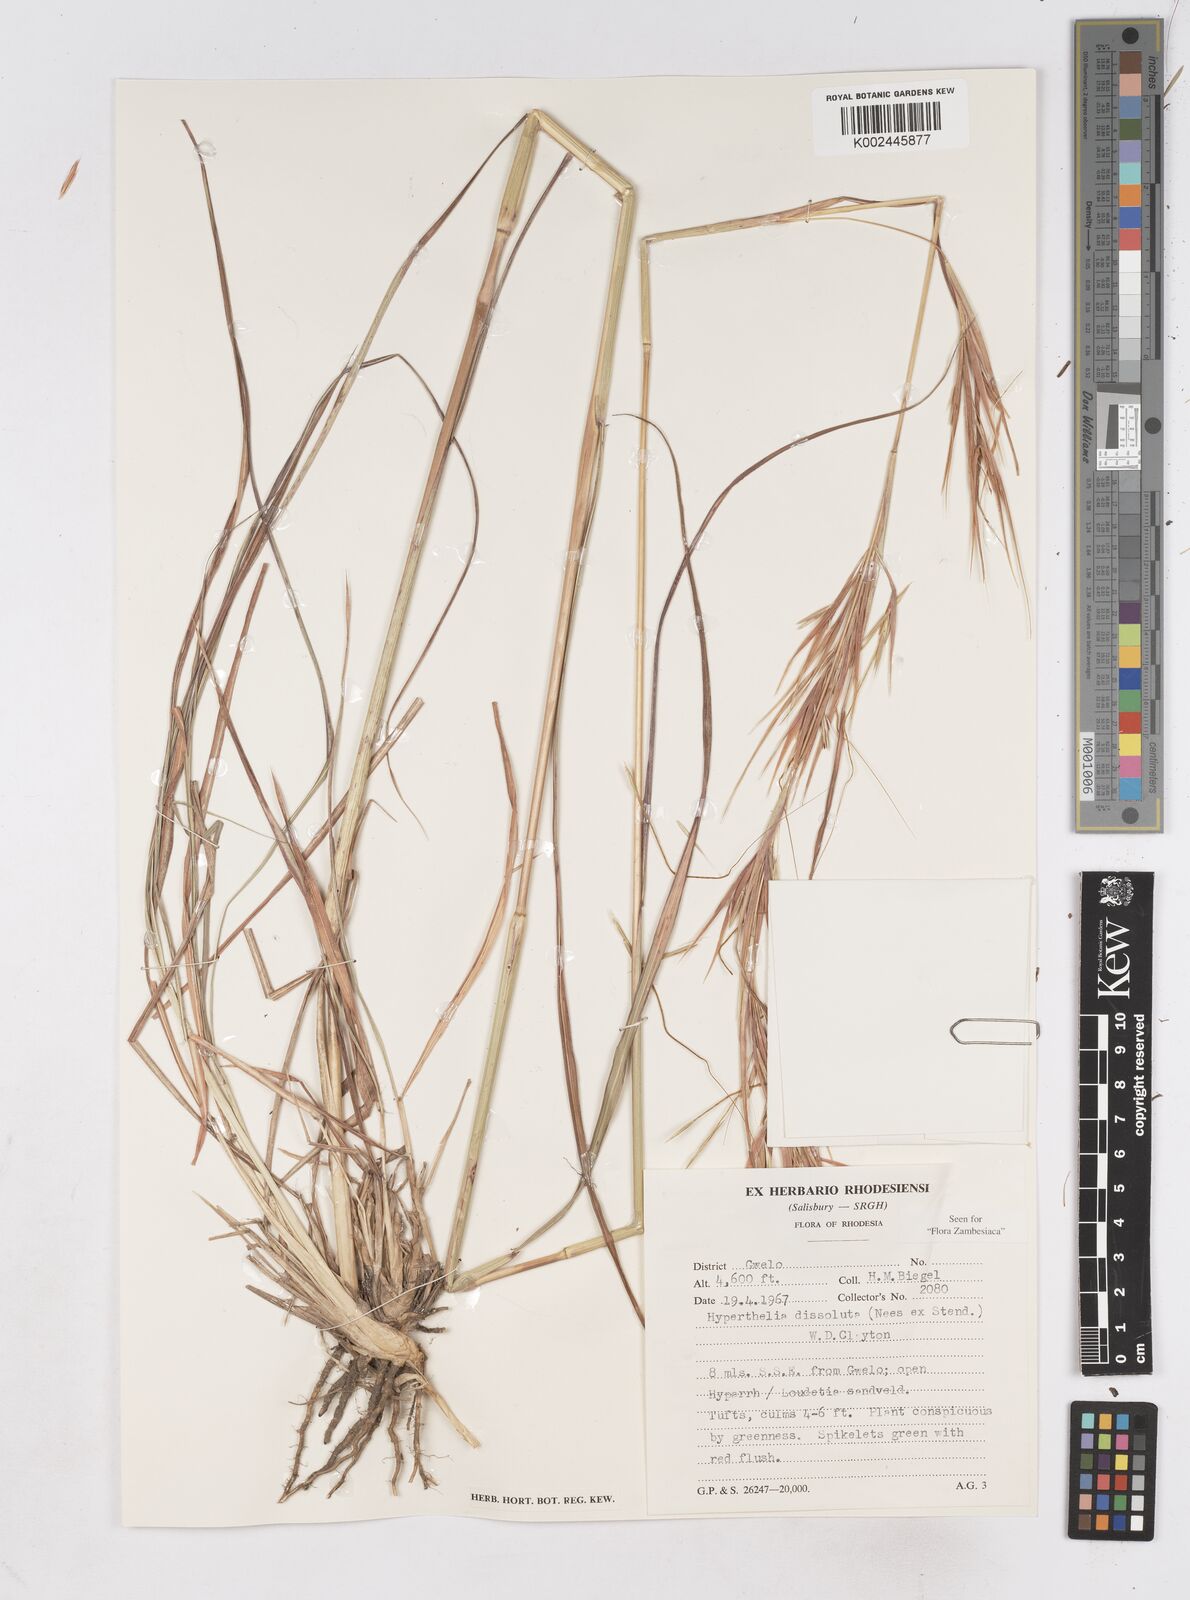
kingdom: Plantae
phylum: Tracheophyta
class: Liliopsida
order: Poales
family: Poaceae
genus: Hyperthelia
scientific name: Hyperthelia dissoluta
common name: Yellow thatching grass
